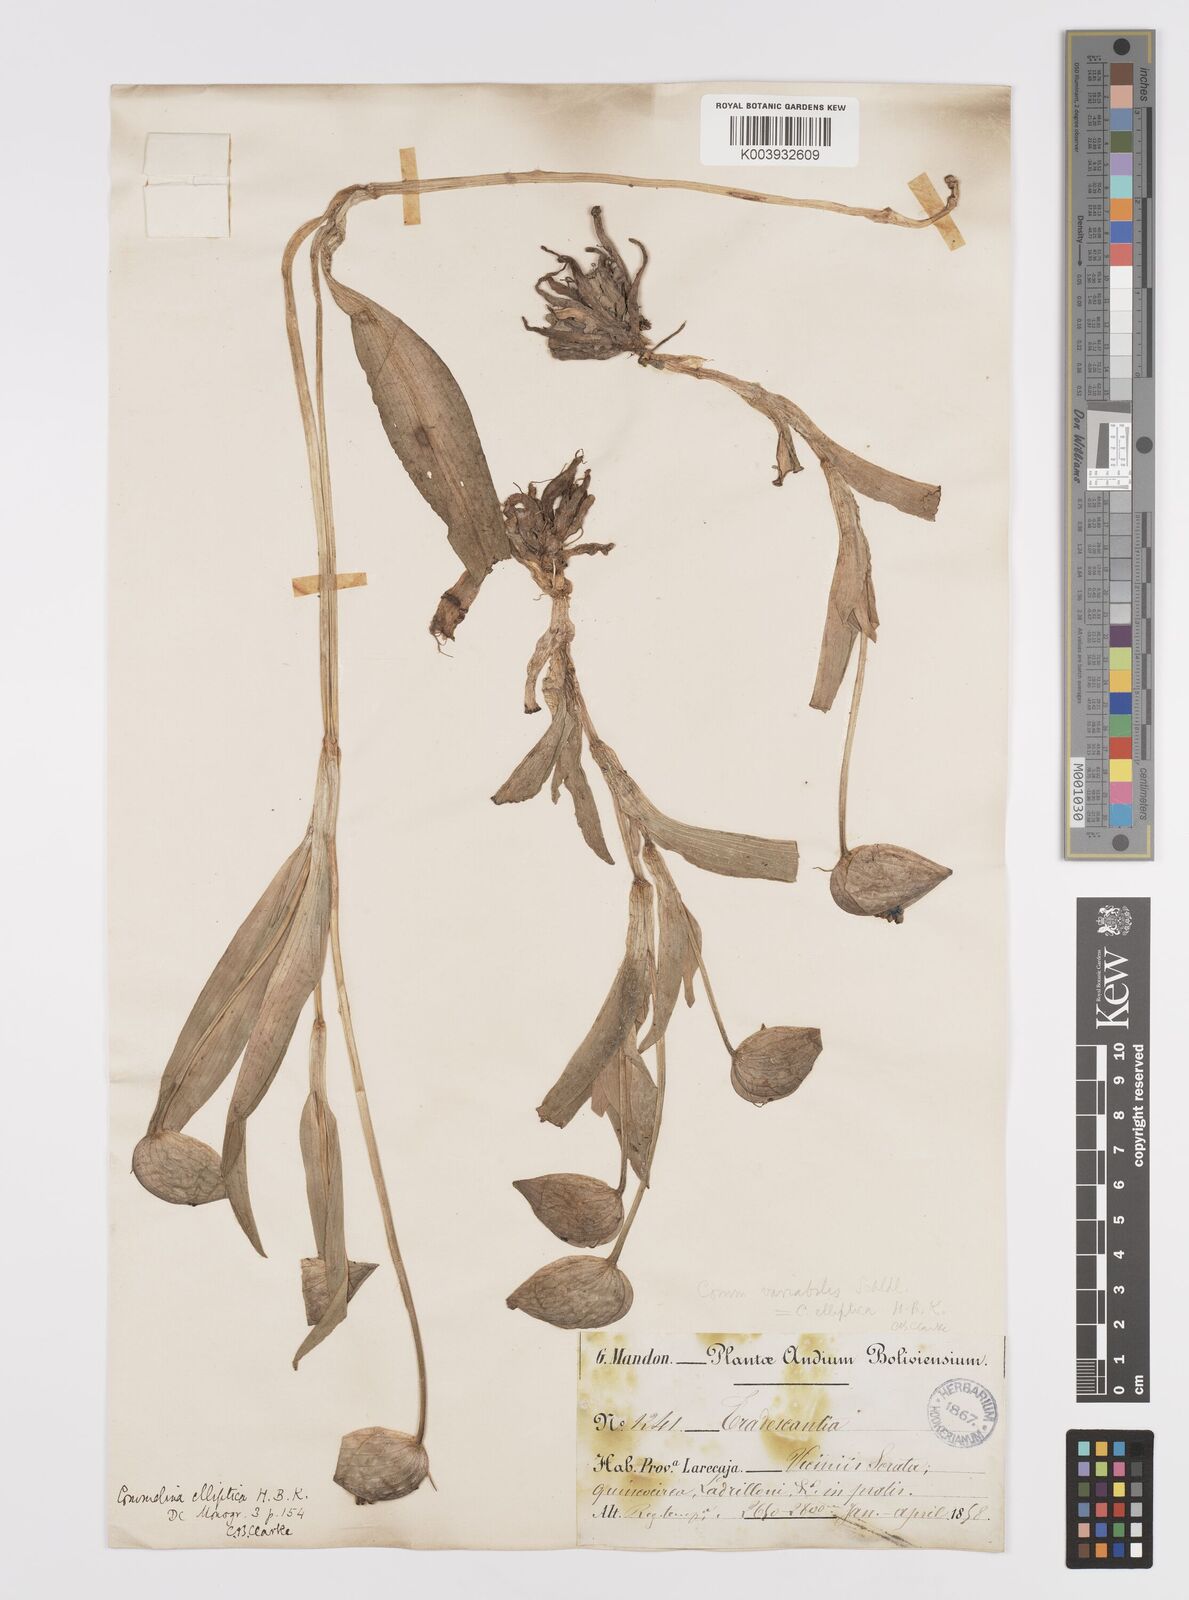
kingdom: Plantae
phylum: Tracheophyta
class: Liliopsida
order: Commelinales
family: Commelinaceae
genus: Commelina
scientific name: Commelina elliptica
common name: Peruvian spiderwort
